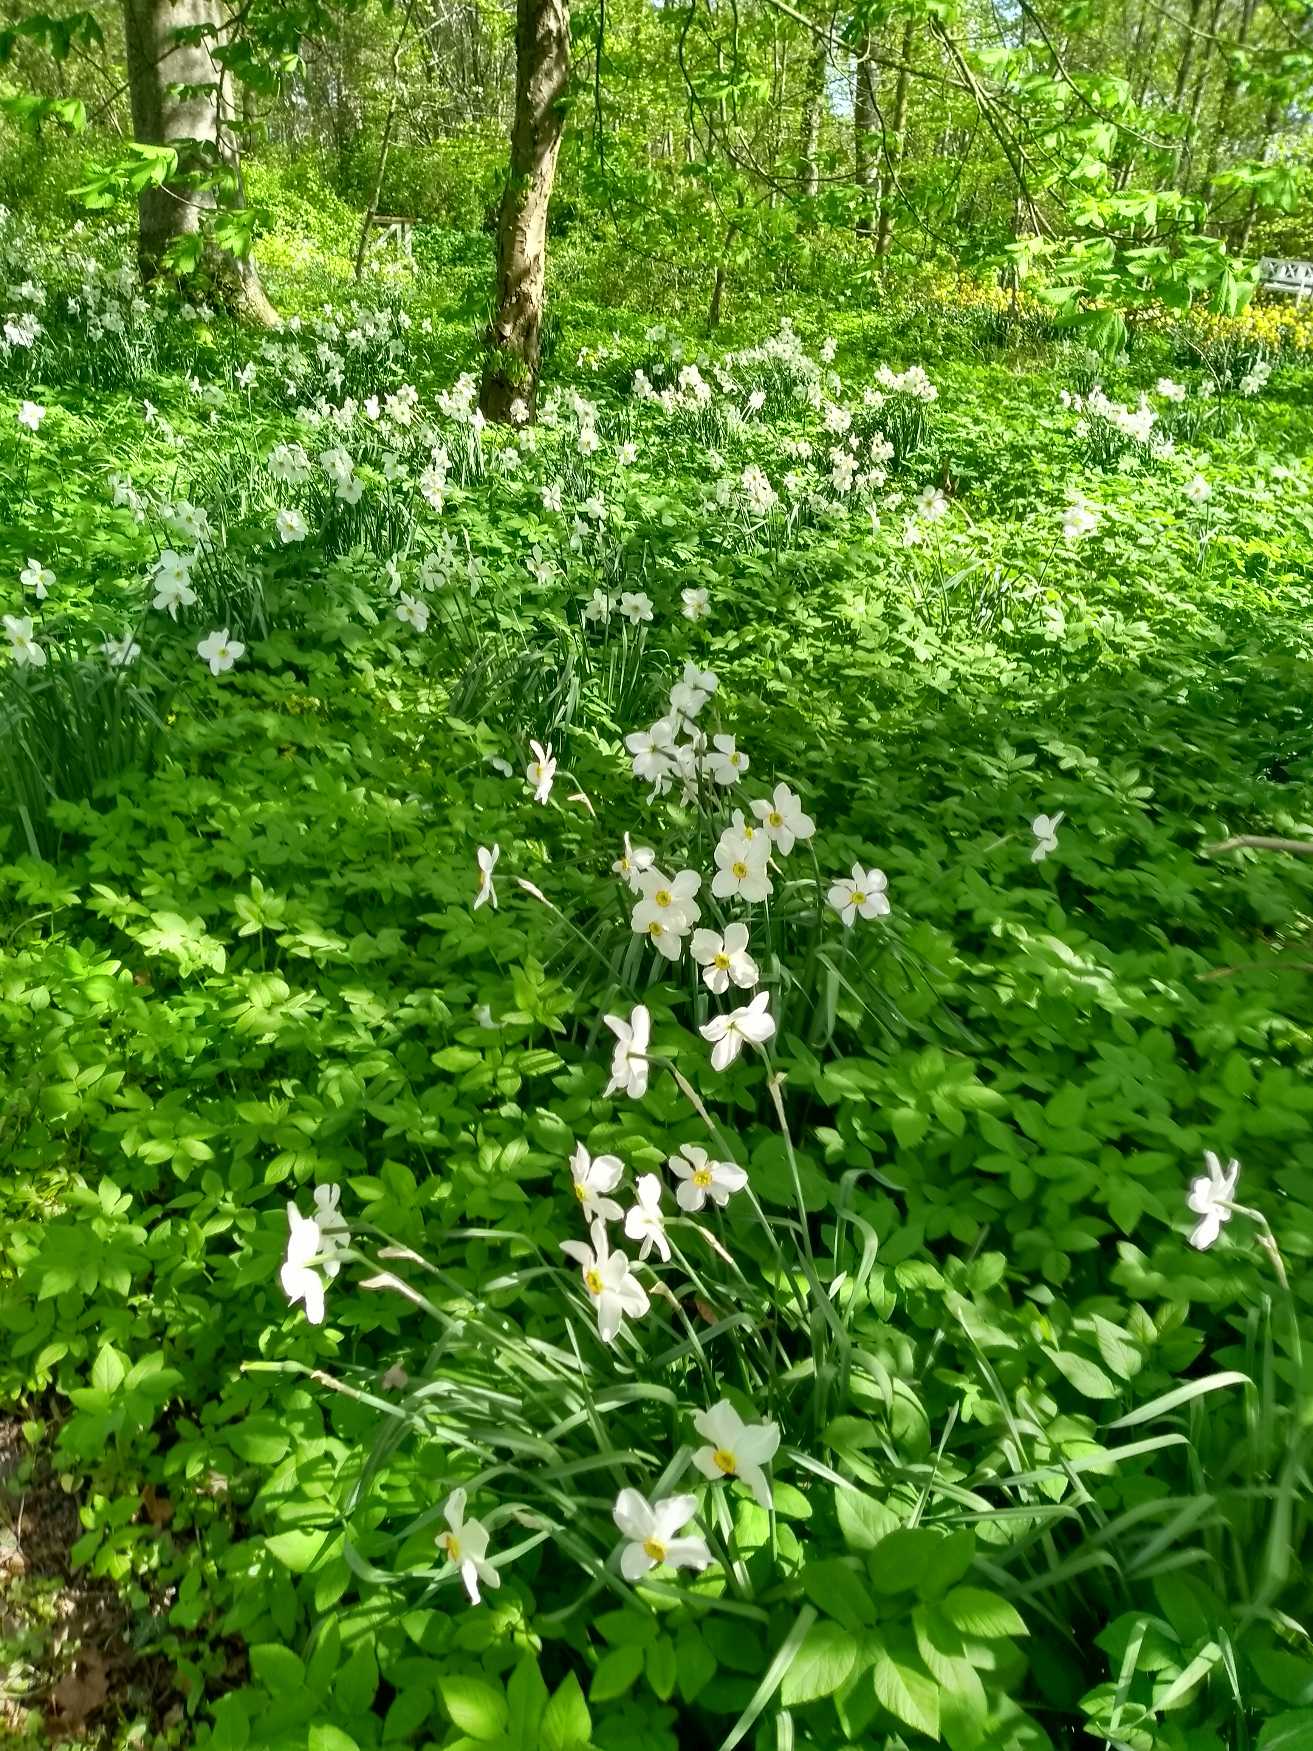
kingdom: Plantae
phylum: Tracheophyta
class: Liliopsida
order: Asparagales
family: Amaryllidaceae
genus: Narcissus
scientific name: Narcissus poeticus
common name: Pinselilje
